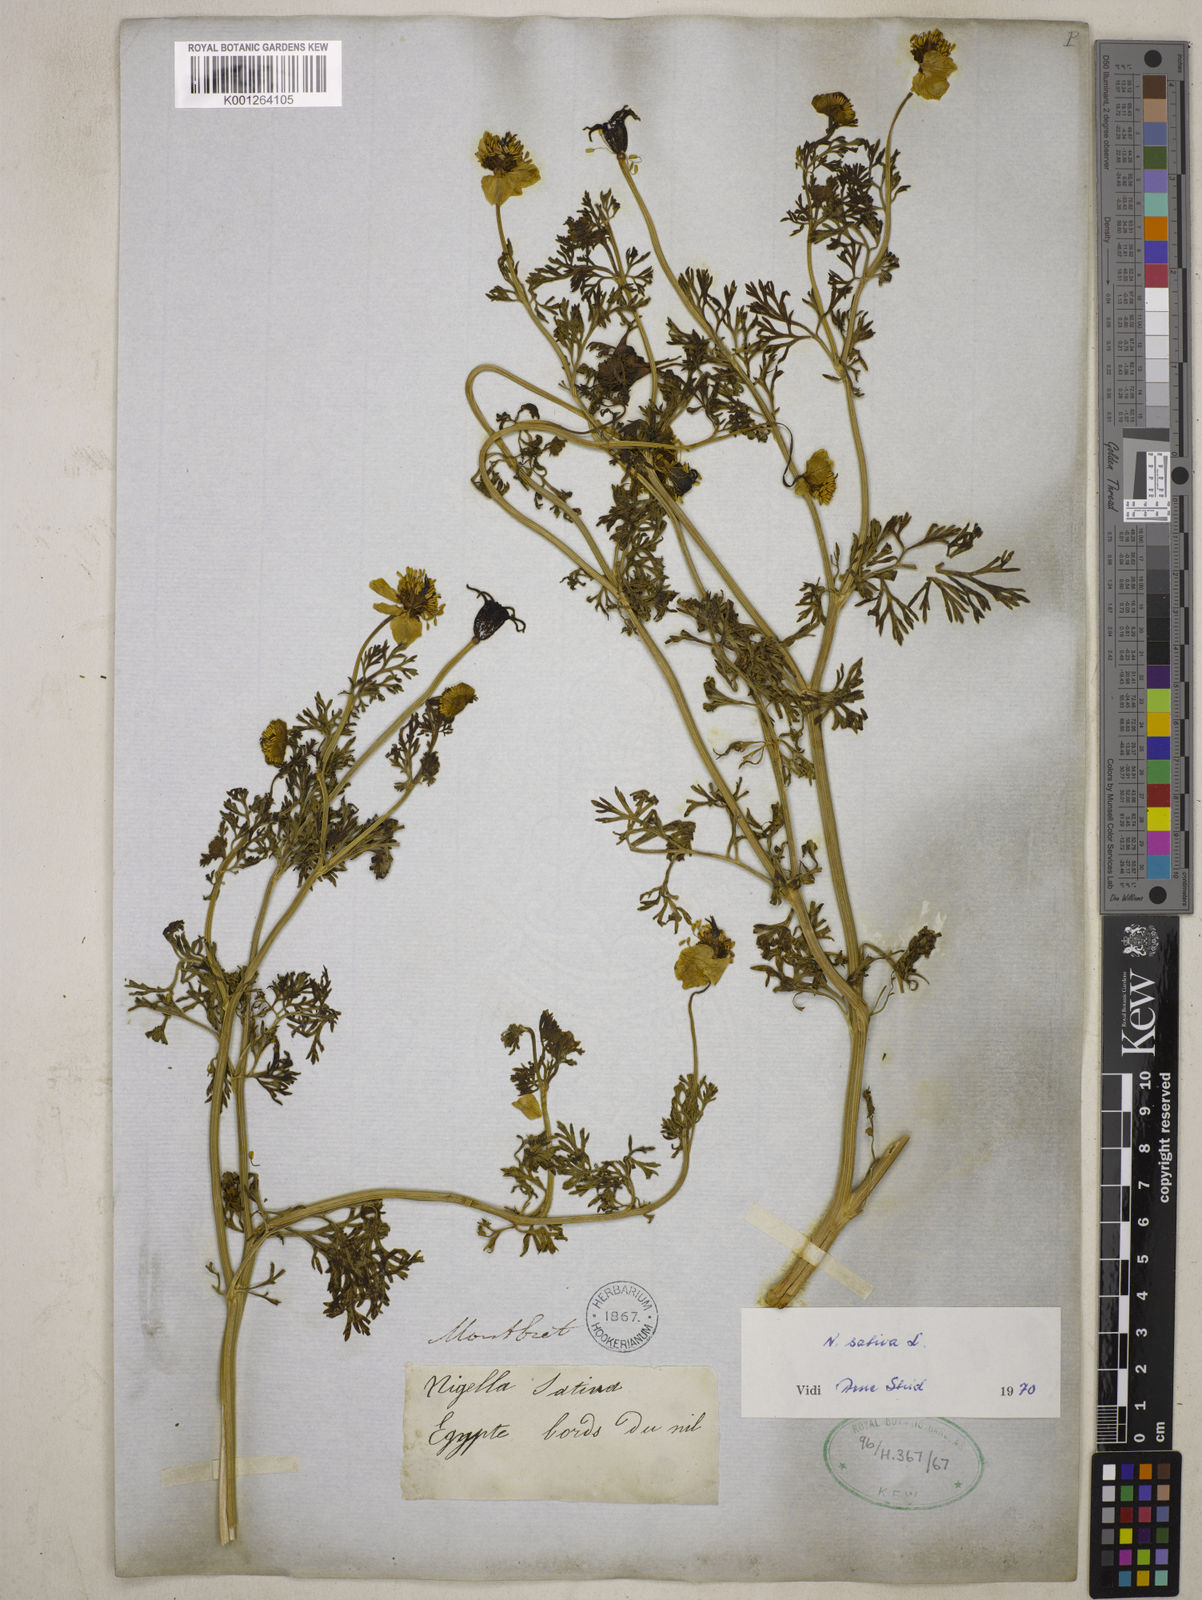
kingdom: Plantae
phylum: Tracheophyta
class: Magnoliopsida
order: Ranunculales
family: Ranunculaceae
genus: Nigella
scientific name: Nigella sativa
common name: Black-cumin
